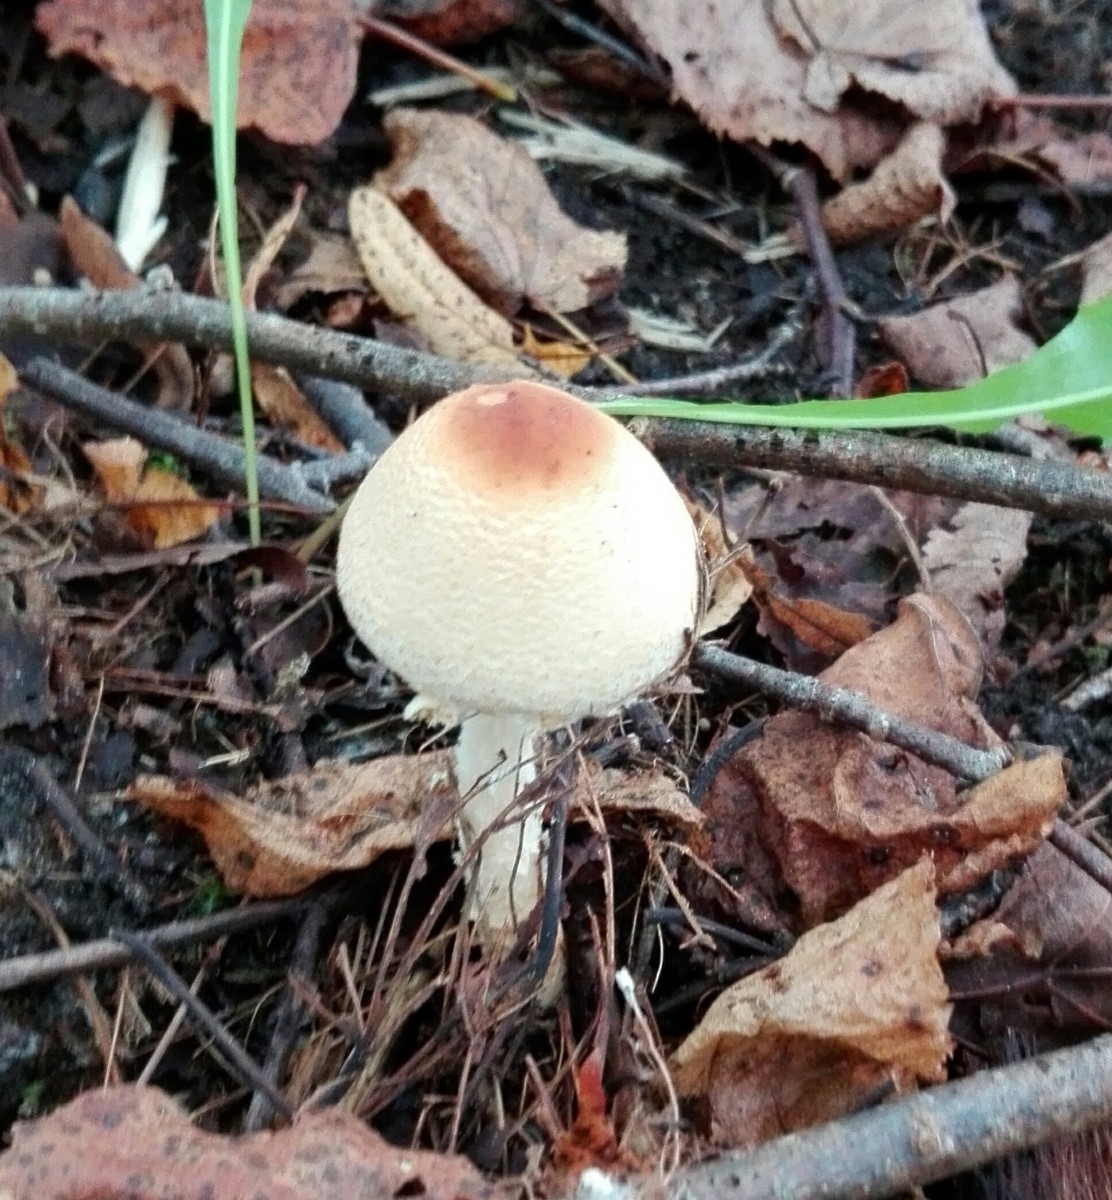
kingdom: Fungi
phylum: Basidiomycota
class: Agaricomycetes
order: Agaricales
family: Agaricaceae
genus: Lepiota
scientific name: Lepiota cristata
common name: stinkende parasolhat
